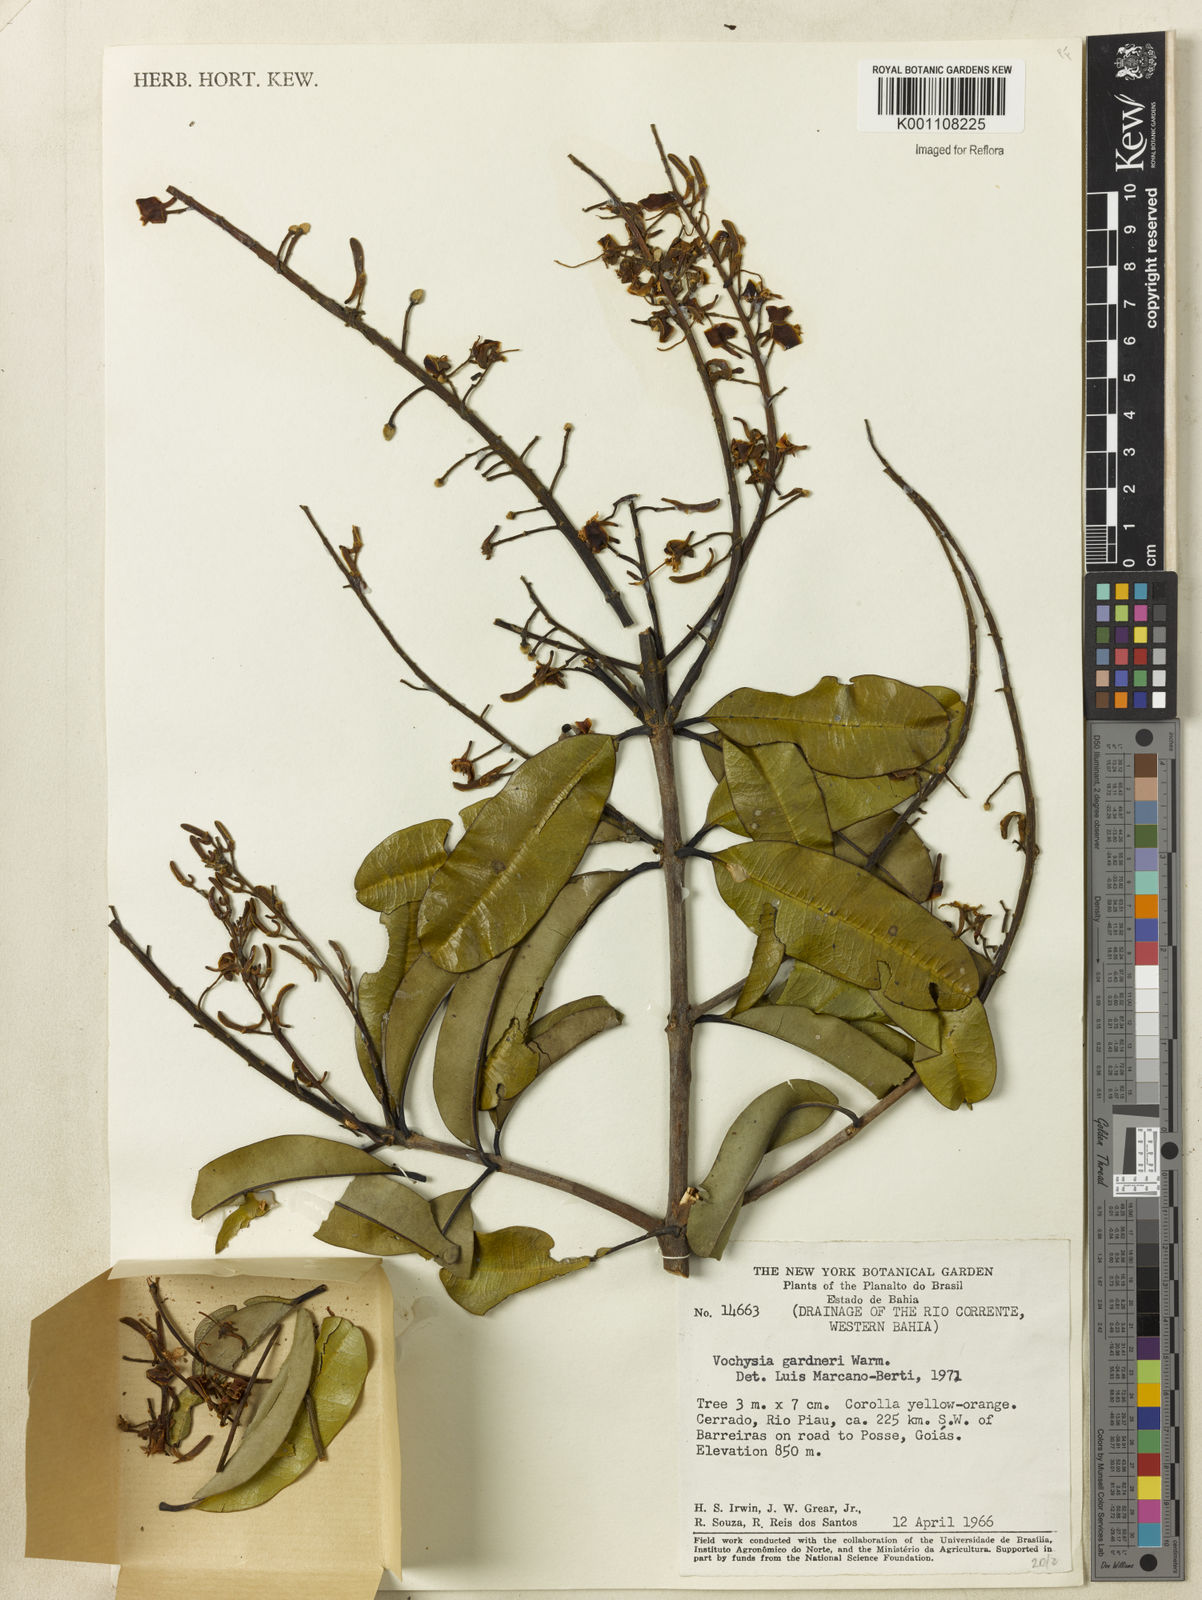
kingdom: Plantae
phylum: Tracheophyta
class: Magnoliopsida
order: Myrtales
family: Vochysiaceae
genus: Vochysia
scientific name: Vochysia gardneri
